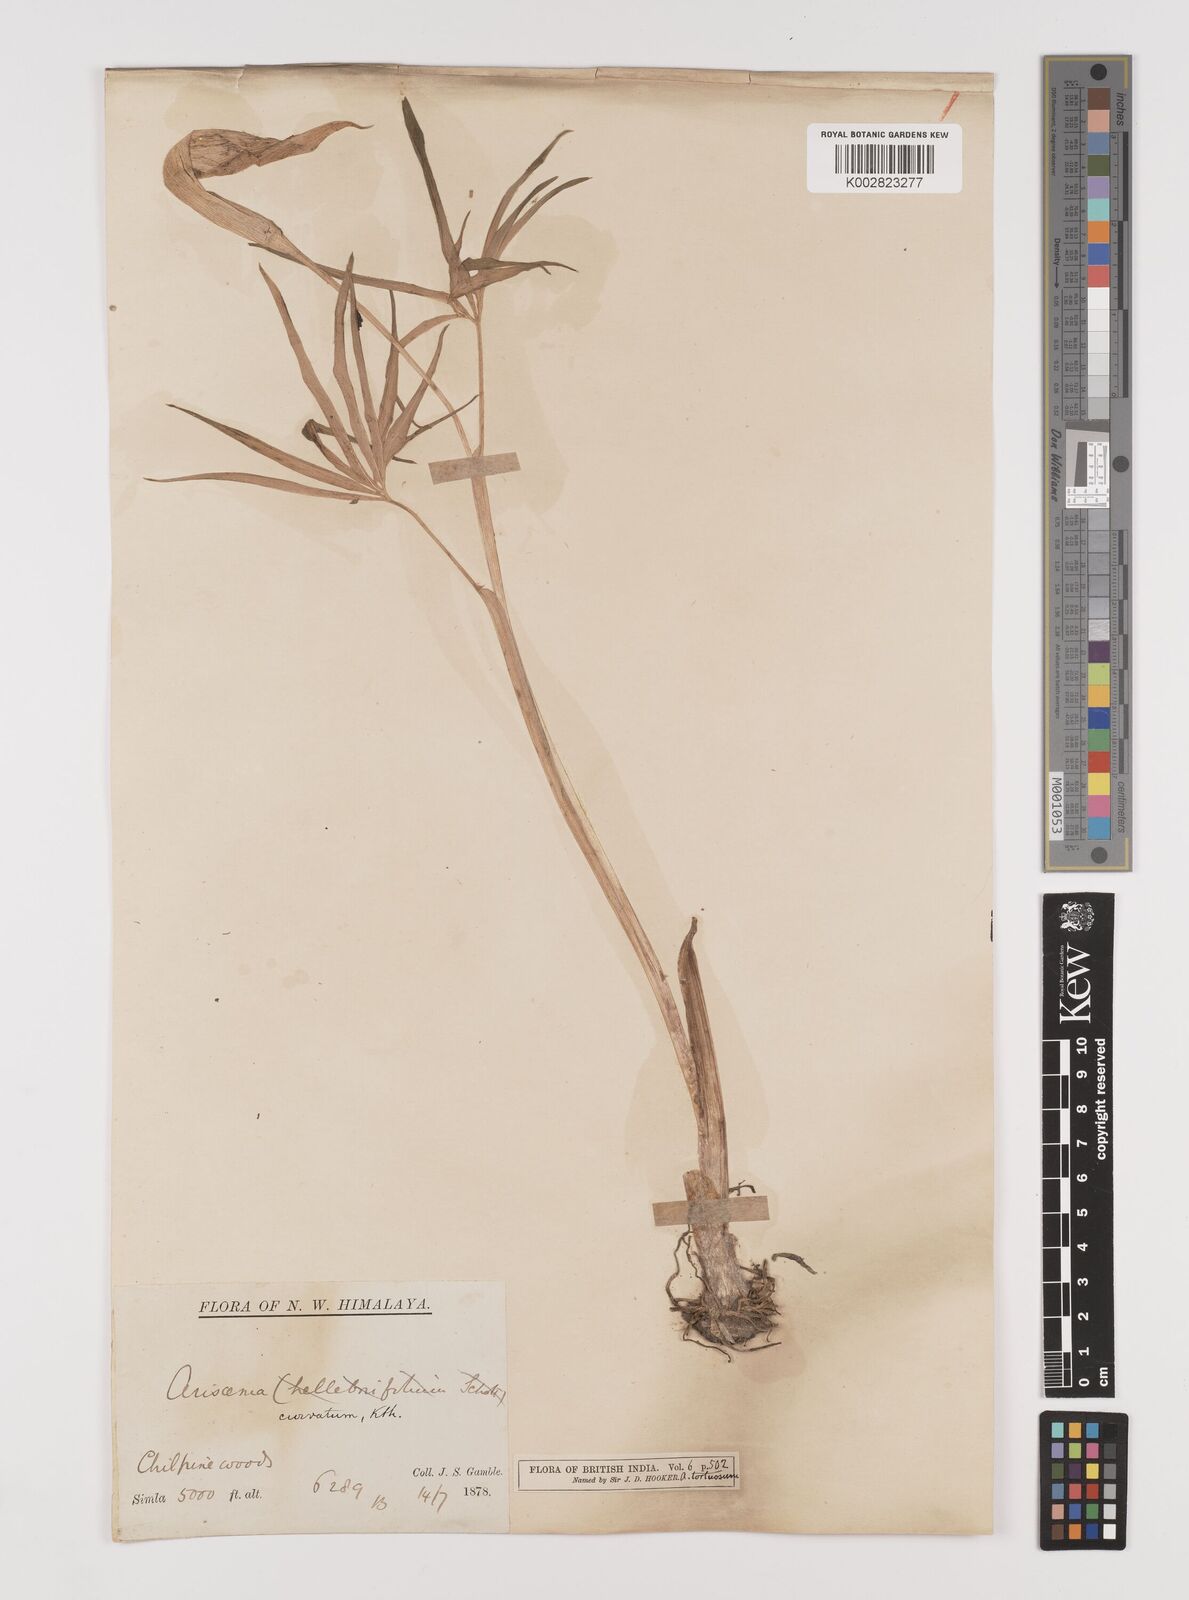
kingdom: Plantae
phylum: Tracheophyta
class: Liliopsida
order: Alismatales
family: Araceae
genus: Arisaema
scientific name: Arisaema tortuosum
